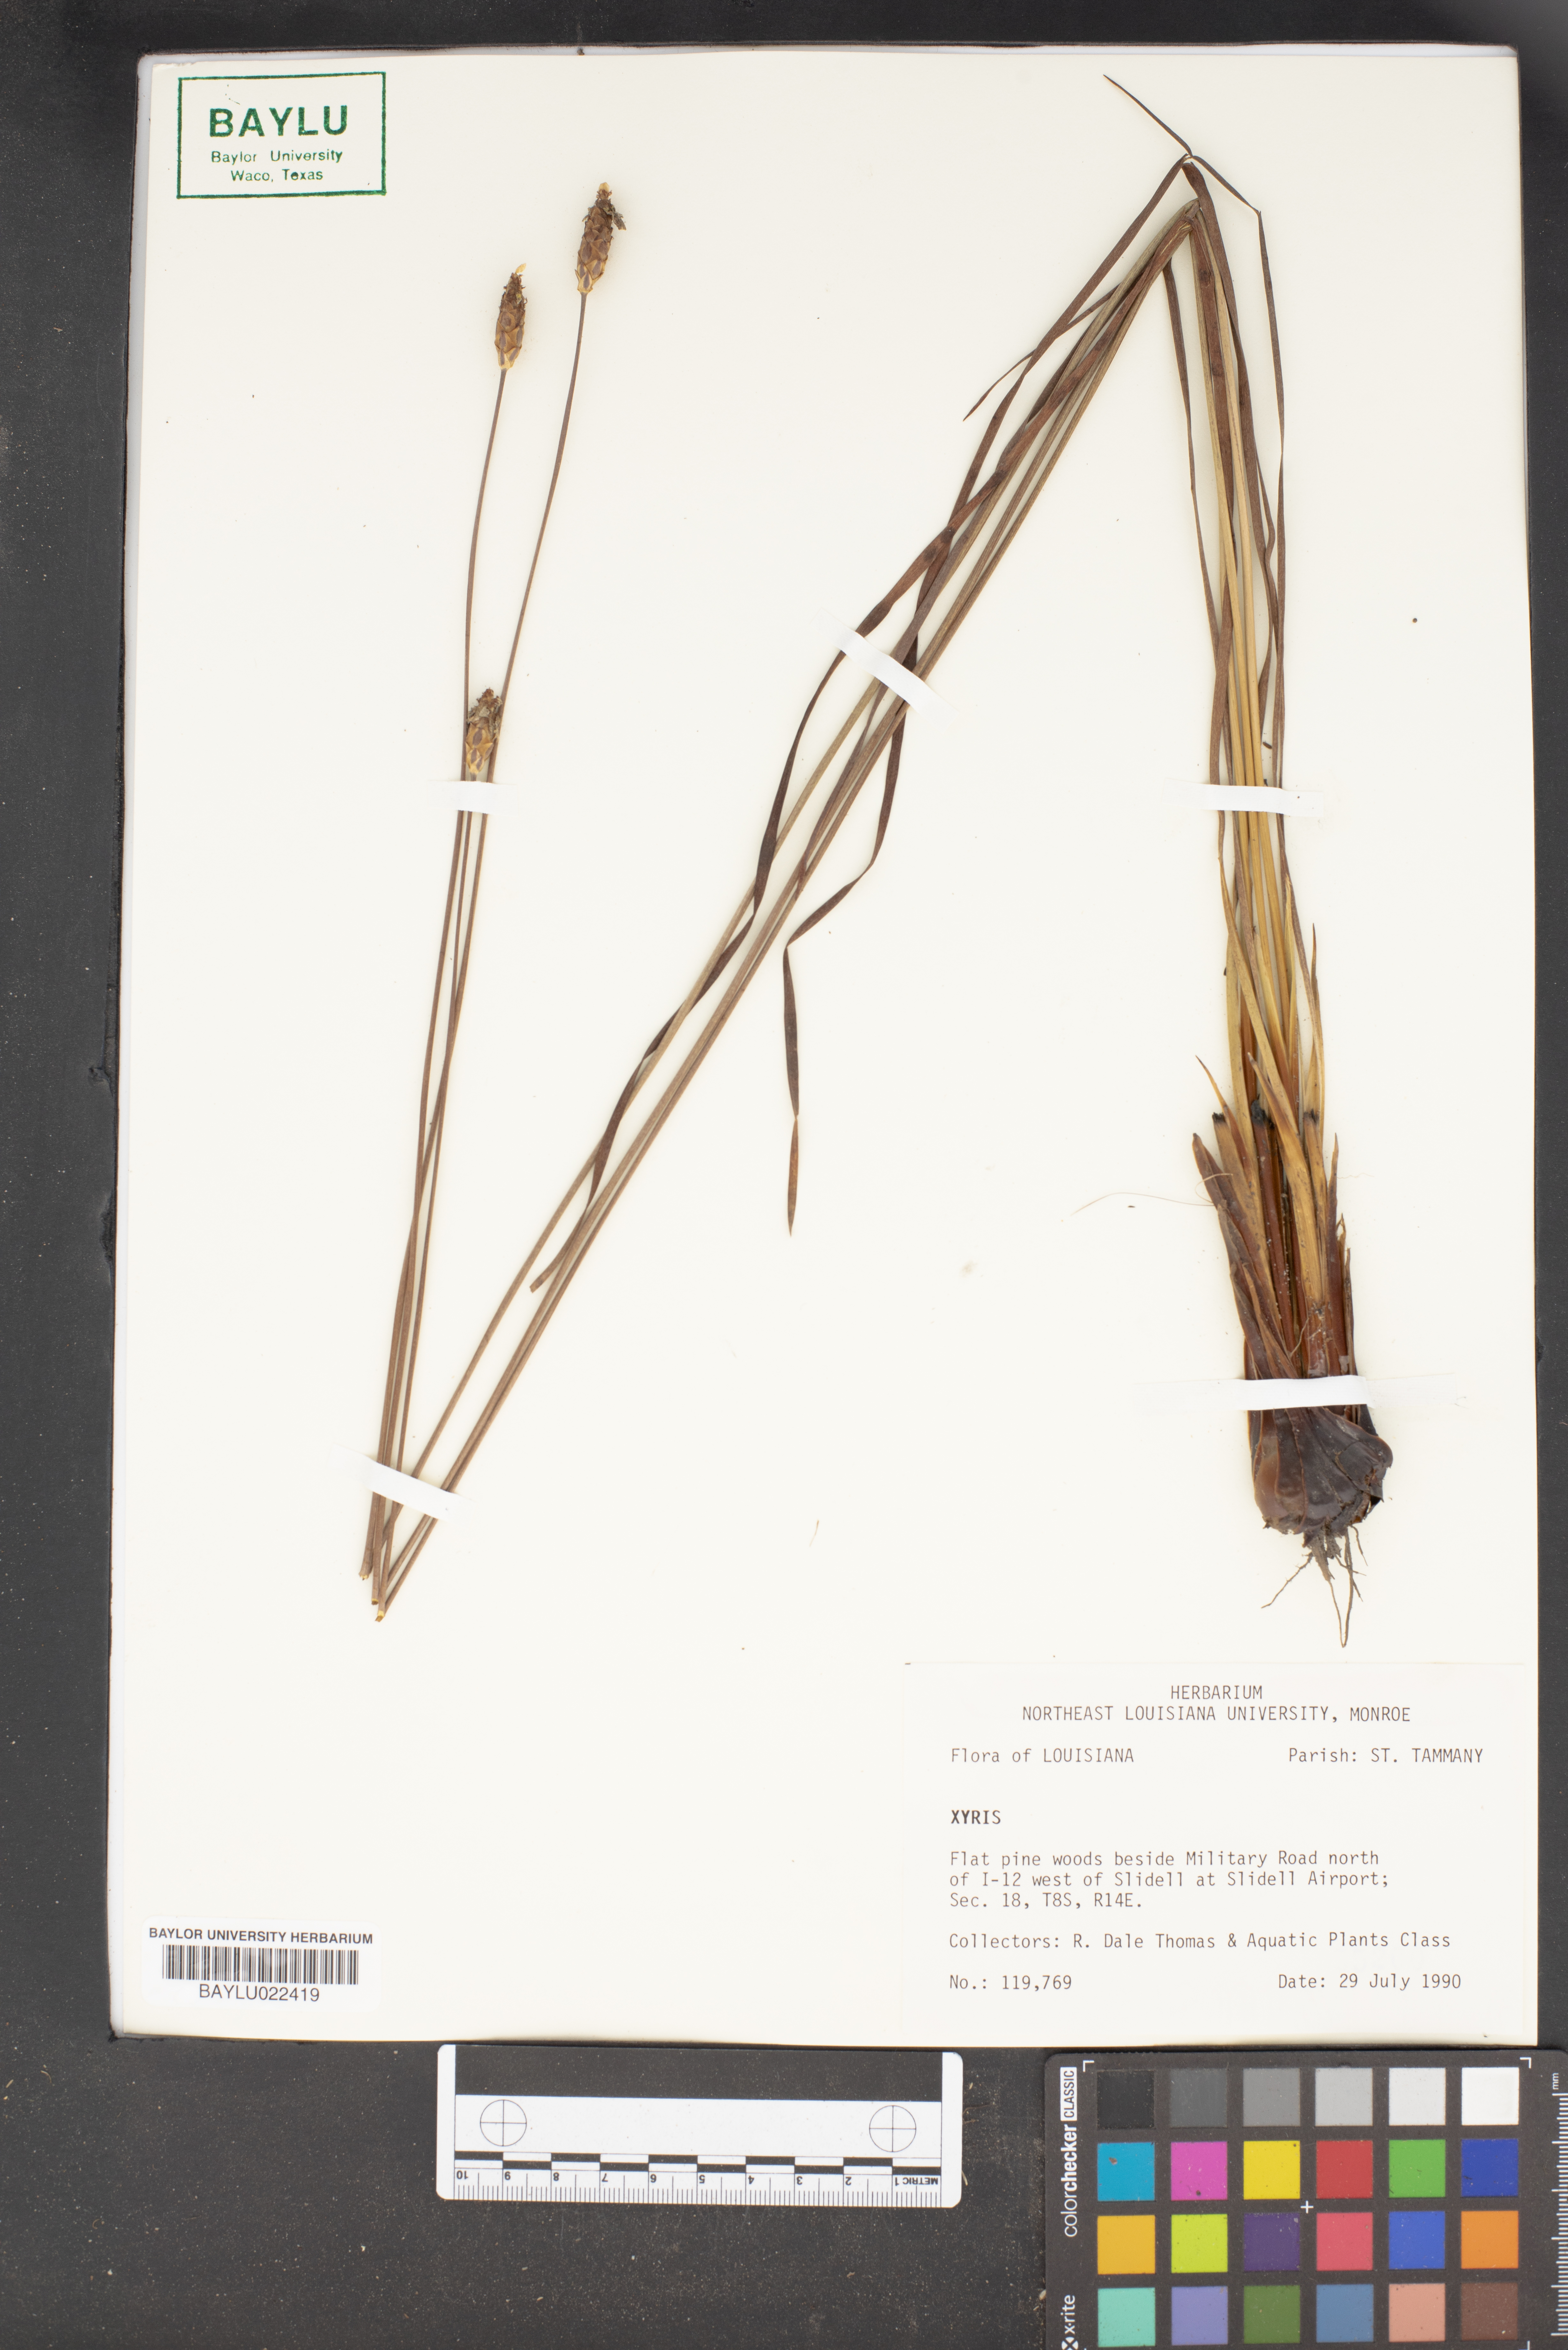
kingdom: Plantae
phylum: Tracheophyta
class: Liliopsida
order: Poales
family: Xyridaceae
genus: Xyris
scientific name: Xyris
